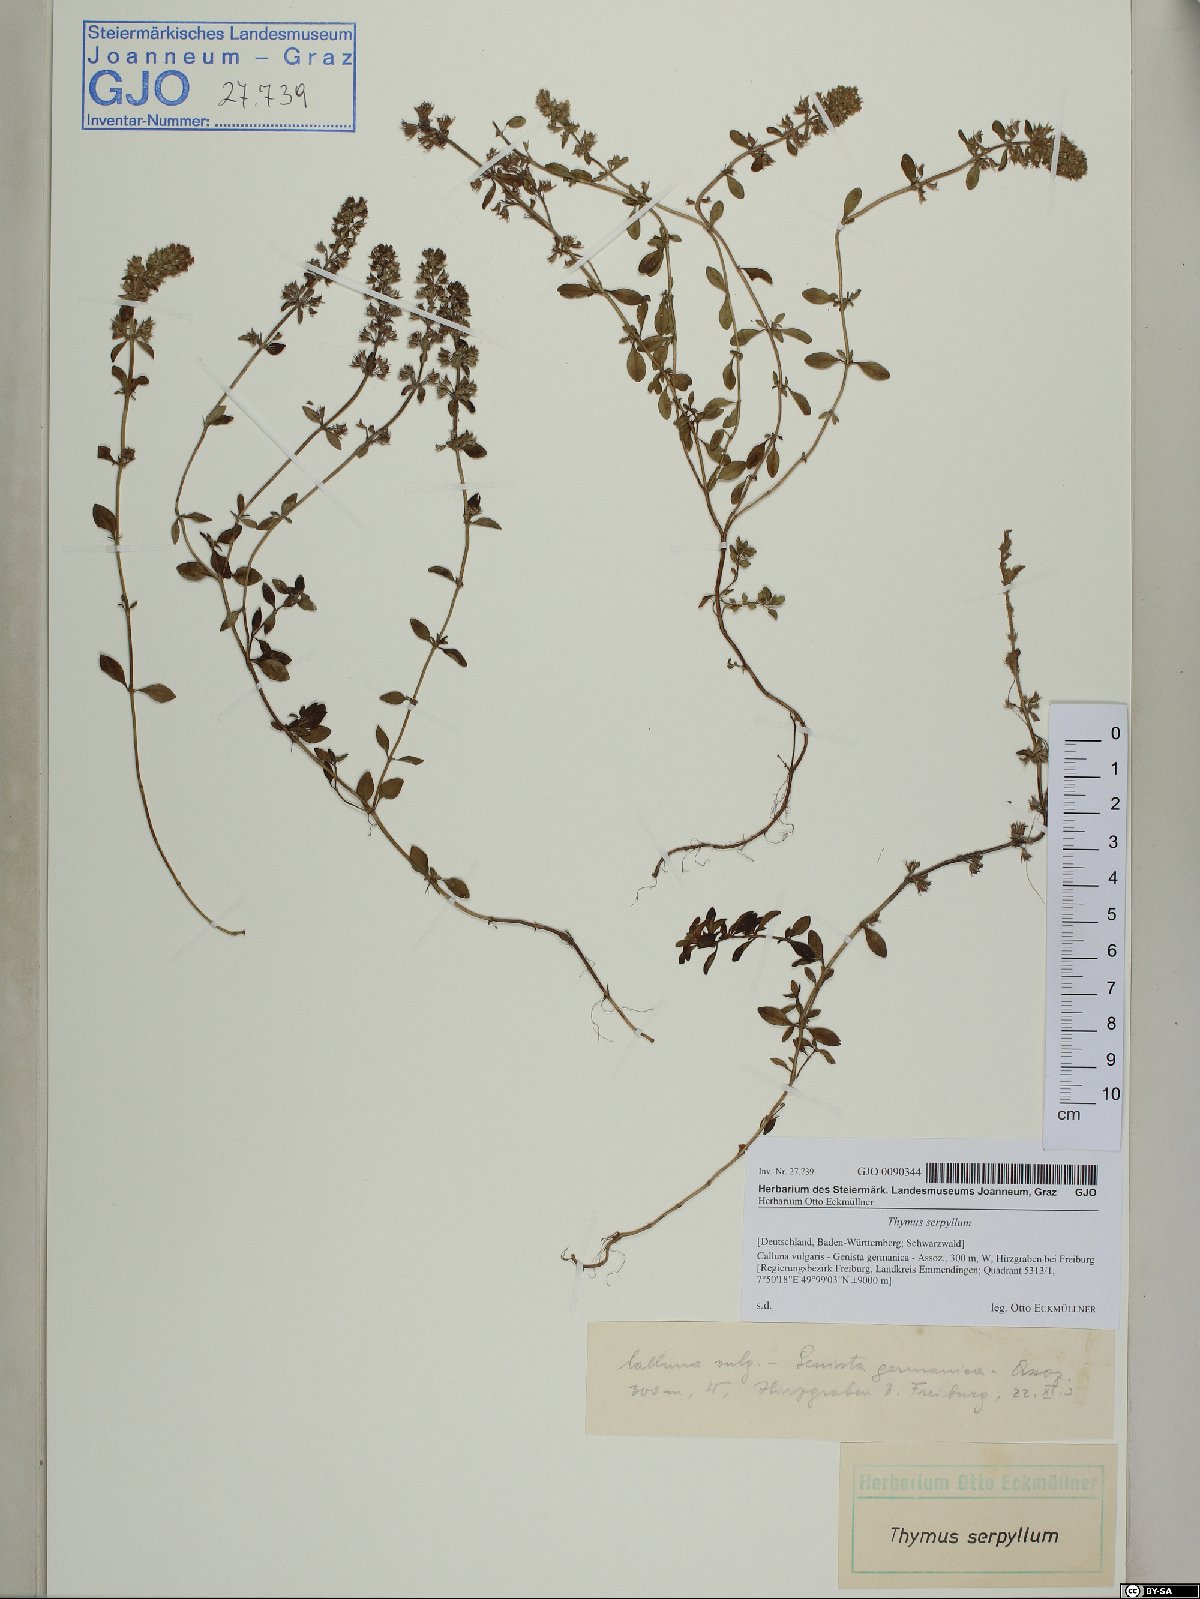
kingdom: Plantae
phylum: Tracheophyta
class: Magnoliopsida
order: Lamiales
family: Lamiaceae
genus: Thymus
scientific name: Thymus serpyllum
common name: Breckland thyme
